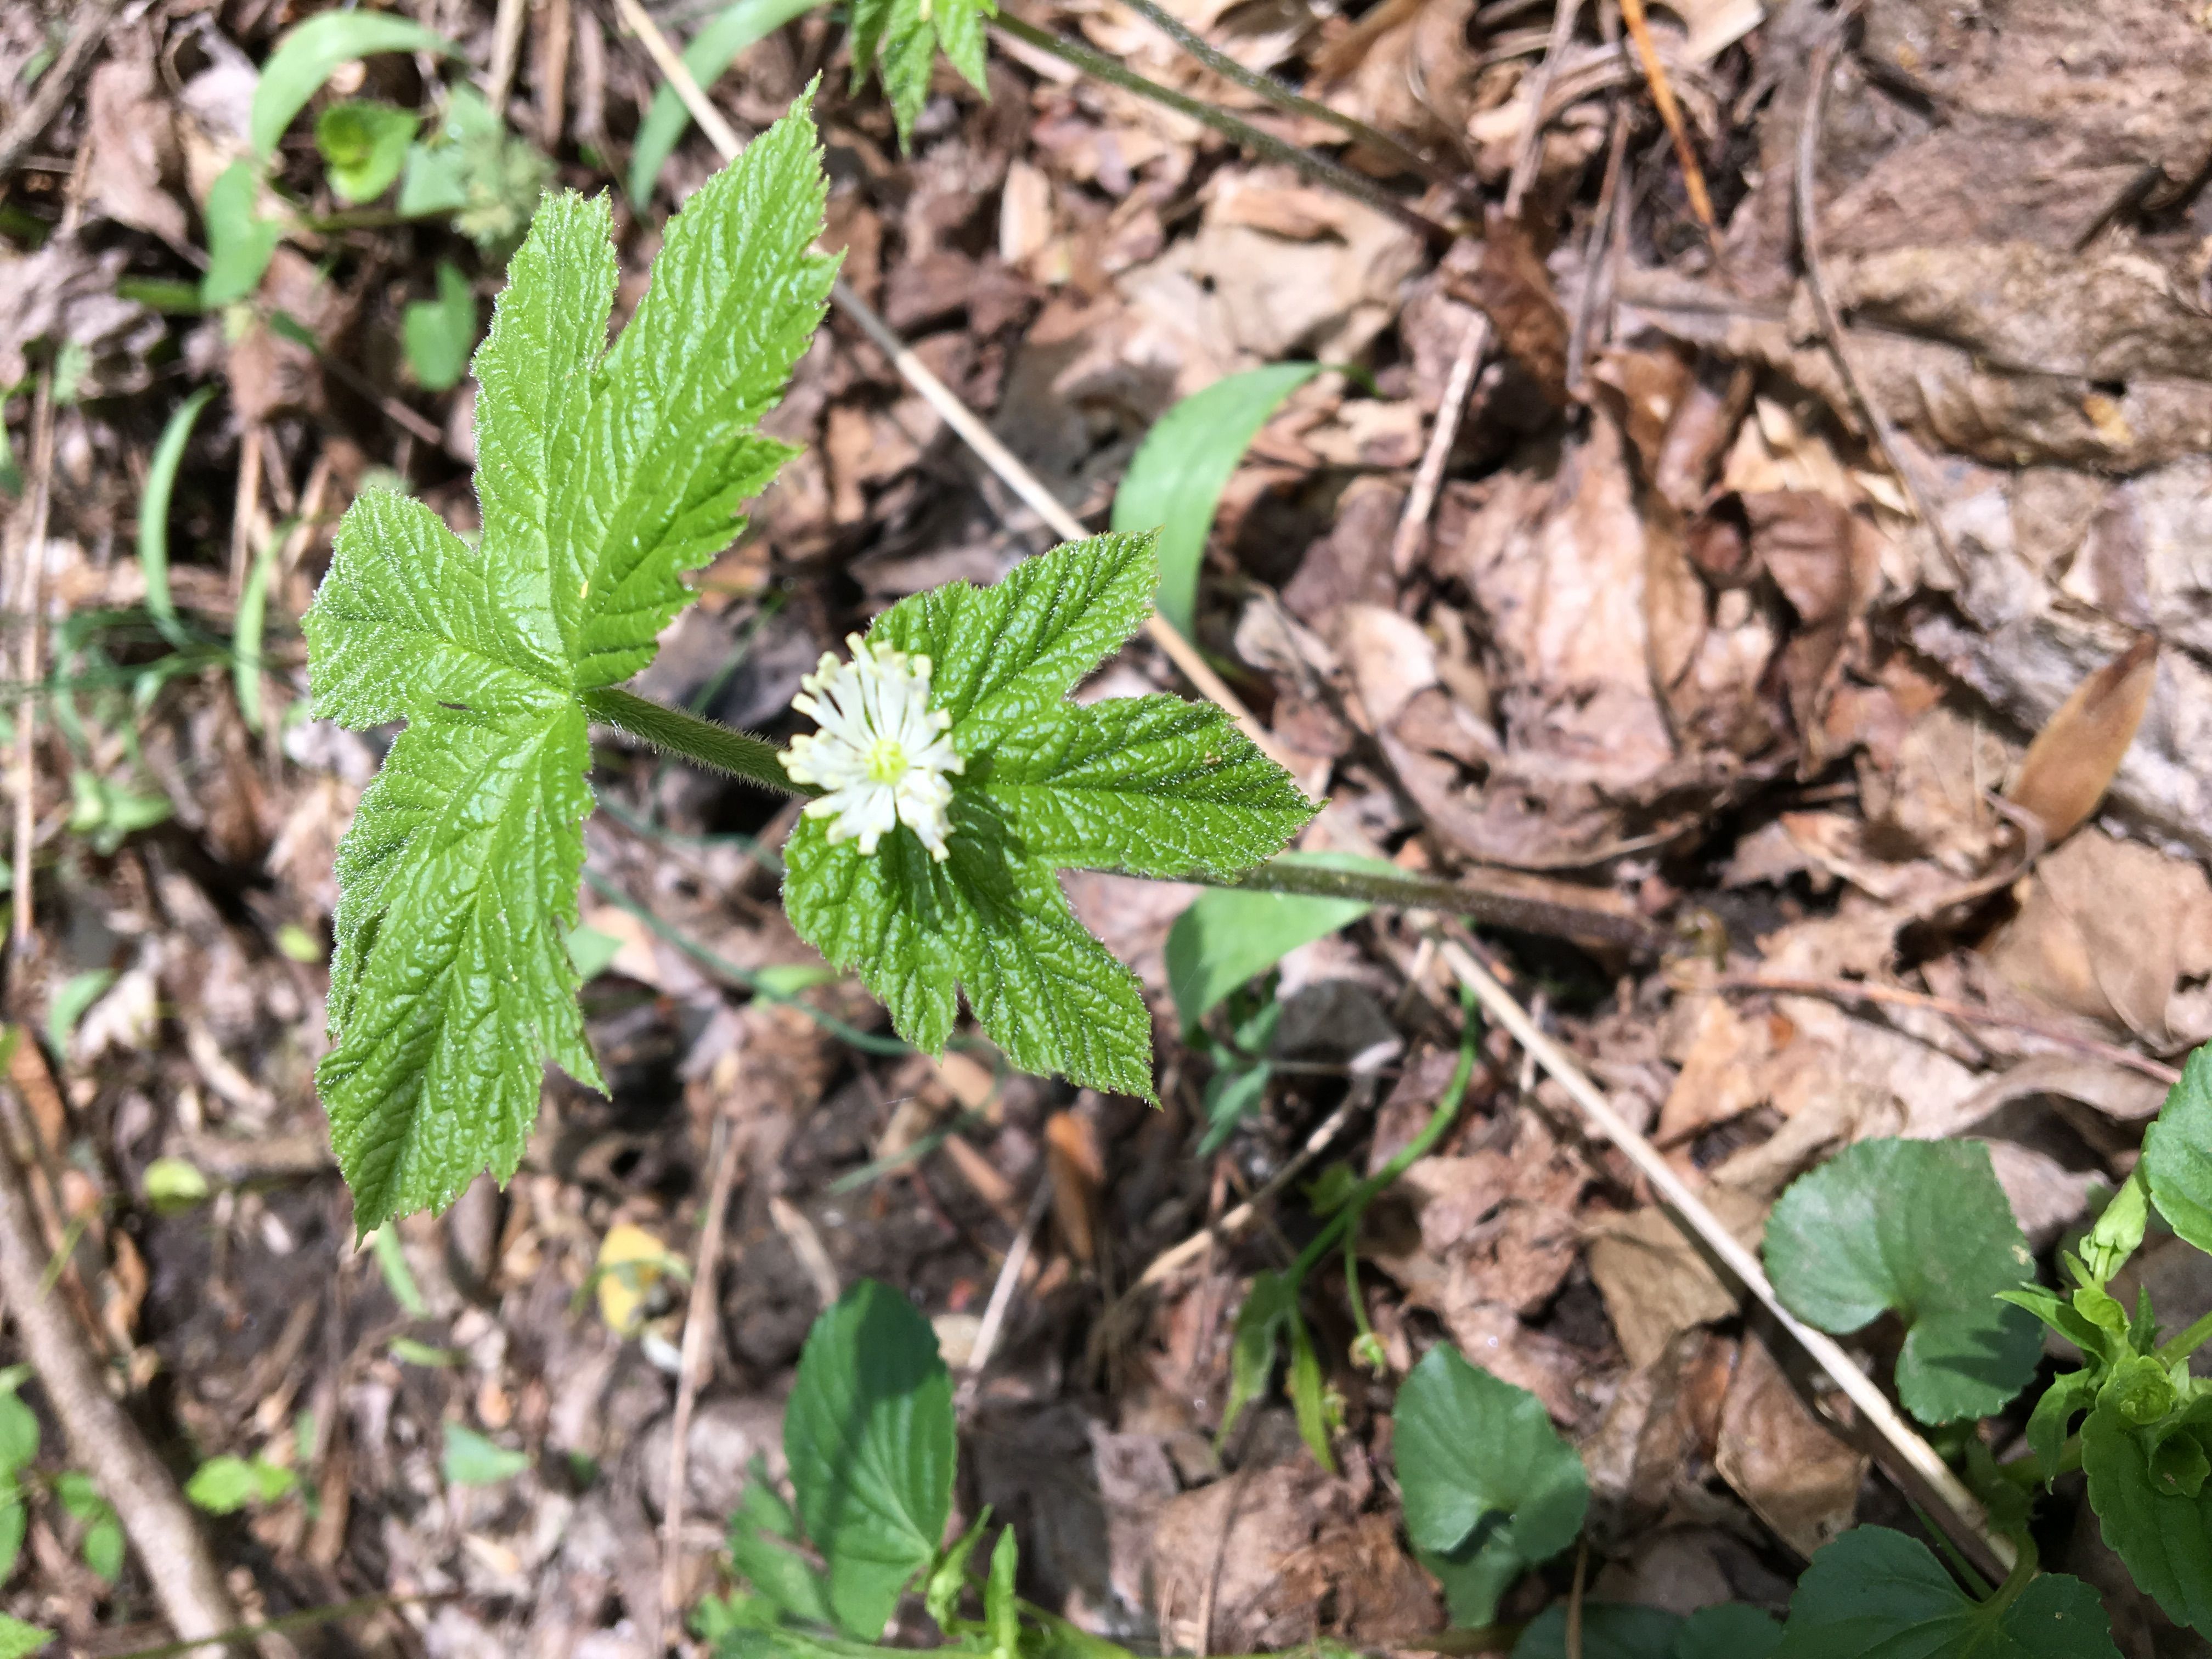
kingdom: Plantae
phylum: Tracheophyta
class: Magnoliopsida
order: Ranunculales
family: Ranunculaceae
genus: Hydrastis
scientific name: Hydrastis canadensis
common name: goldenseal
